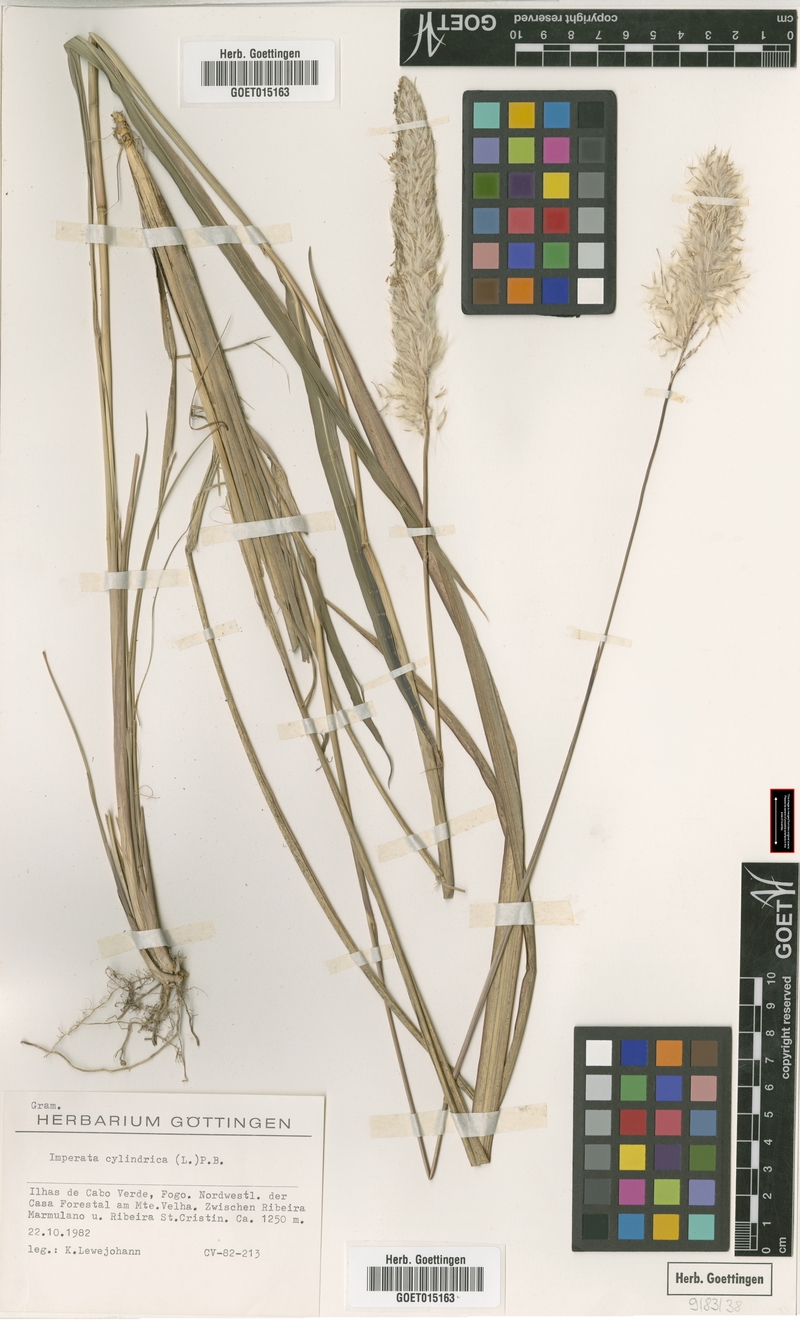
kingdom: Plantae
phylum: Tracheophyta
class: Liliopsida
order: Poales
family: Poaceae
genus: Imperata
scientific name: Imperata cylindrica
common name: Cogongrass
